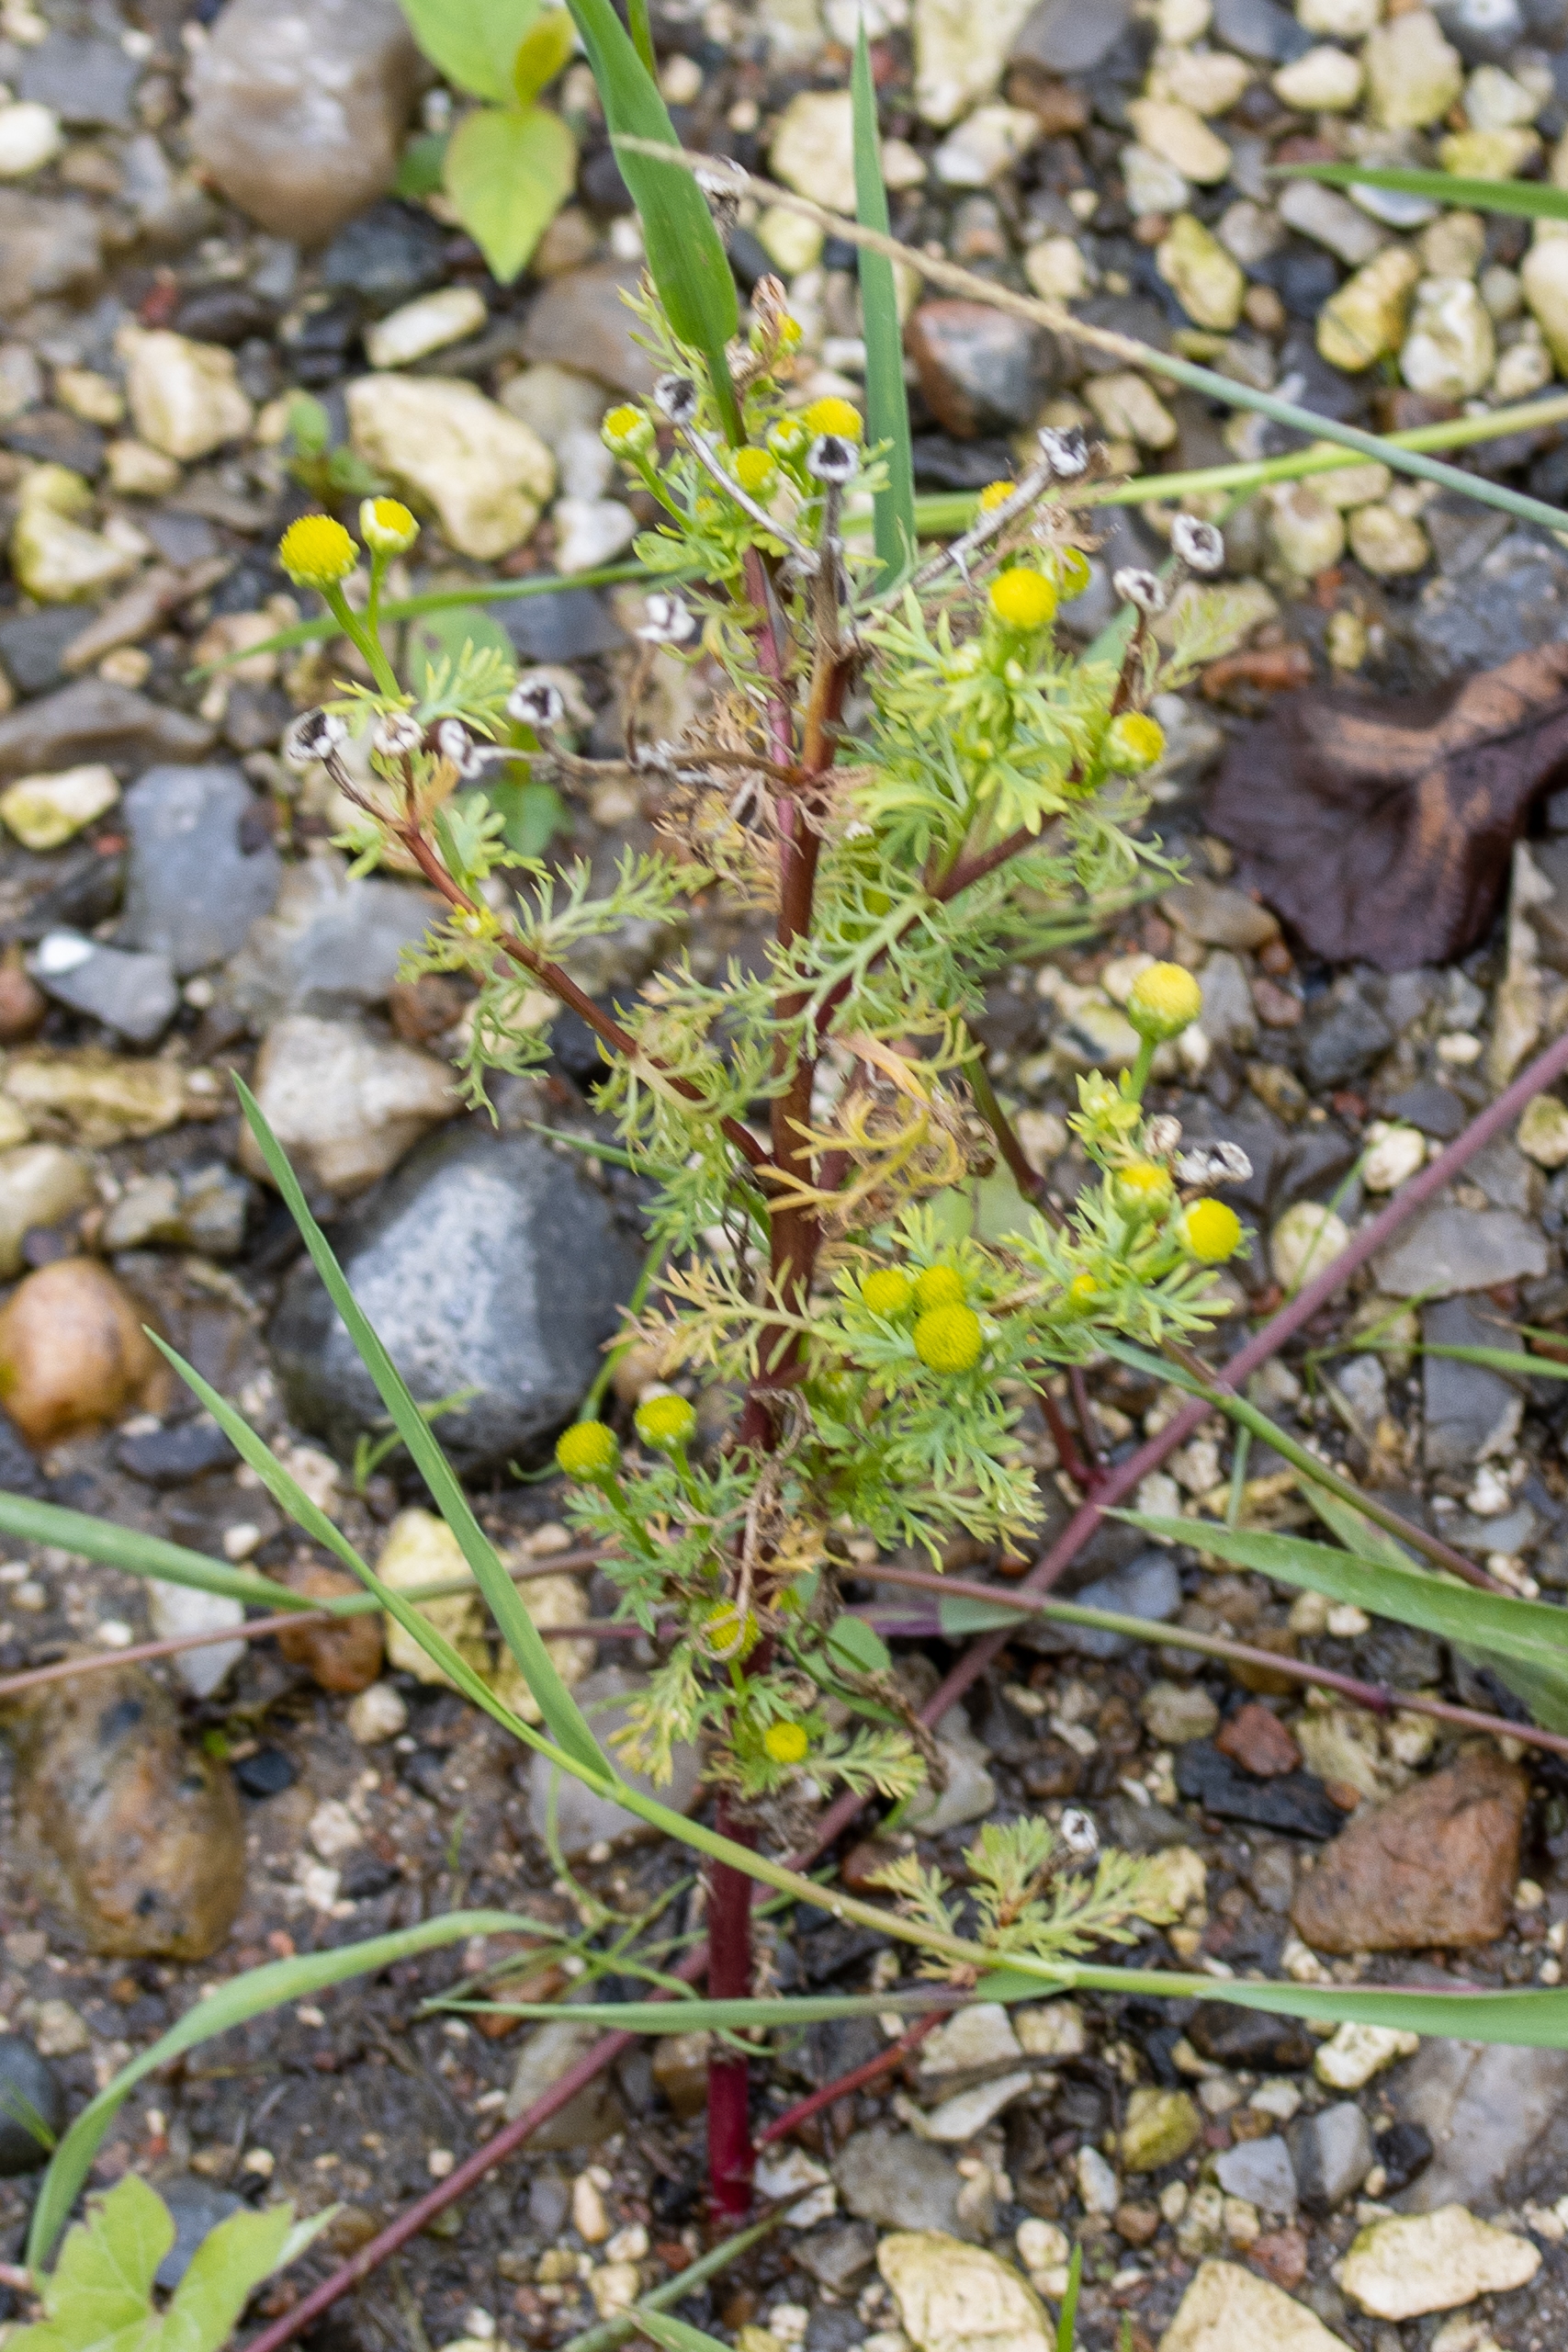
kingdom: Plantae
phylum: Tracheophyta
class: Magnoliopsida
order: Asterales
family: Asteraceae
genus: Matricaria
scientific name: Matricaria discoidea
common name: Skive-kamille
